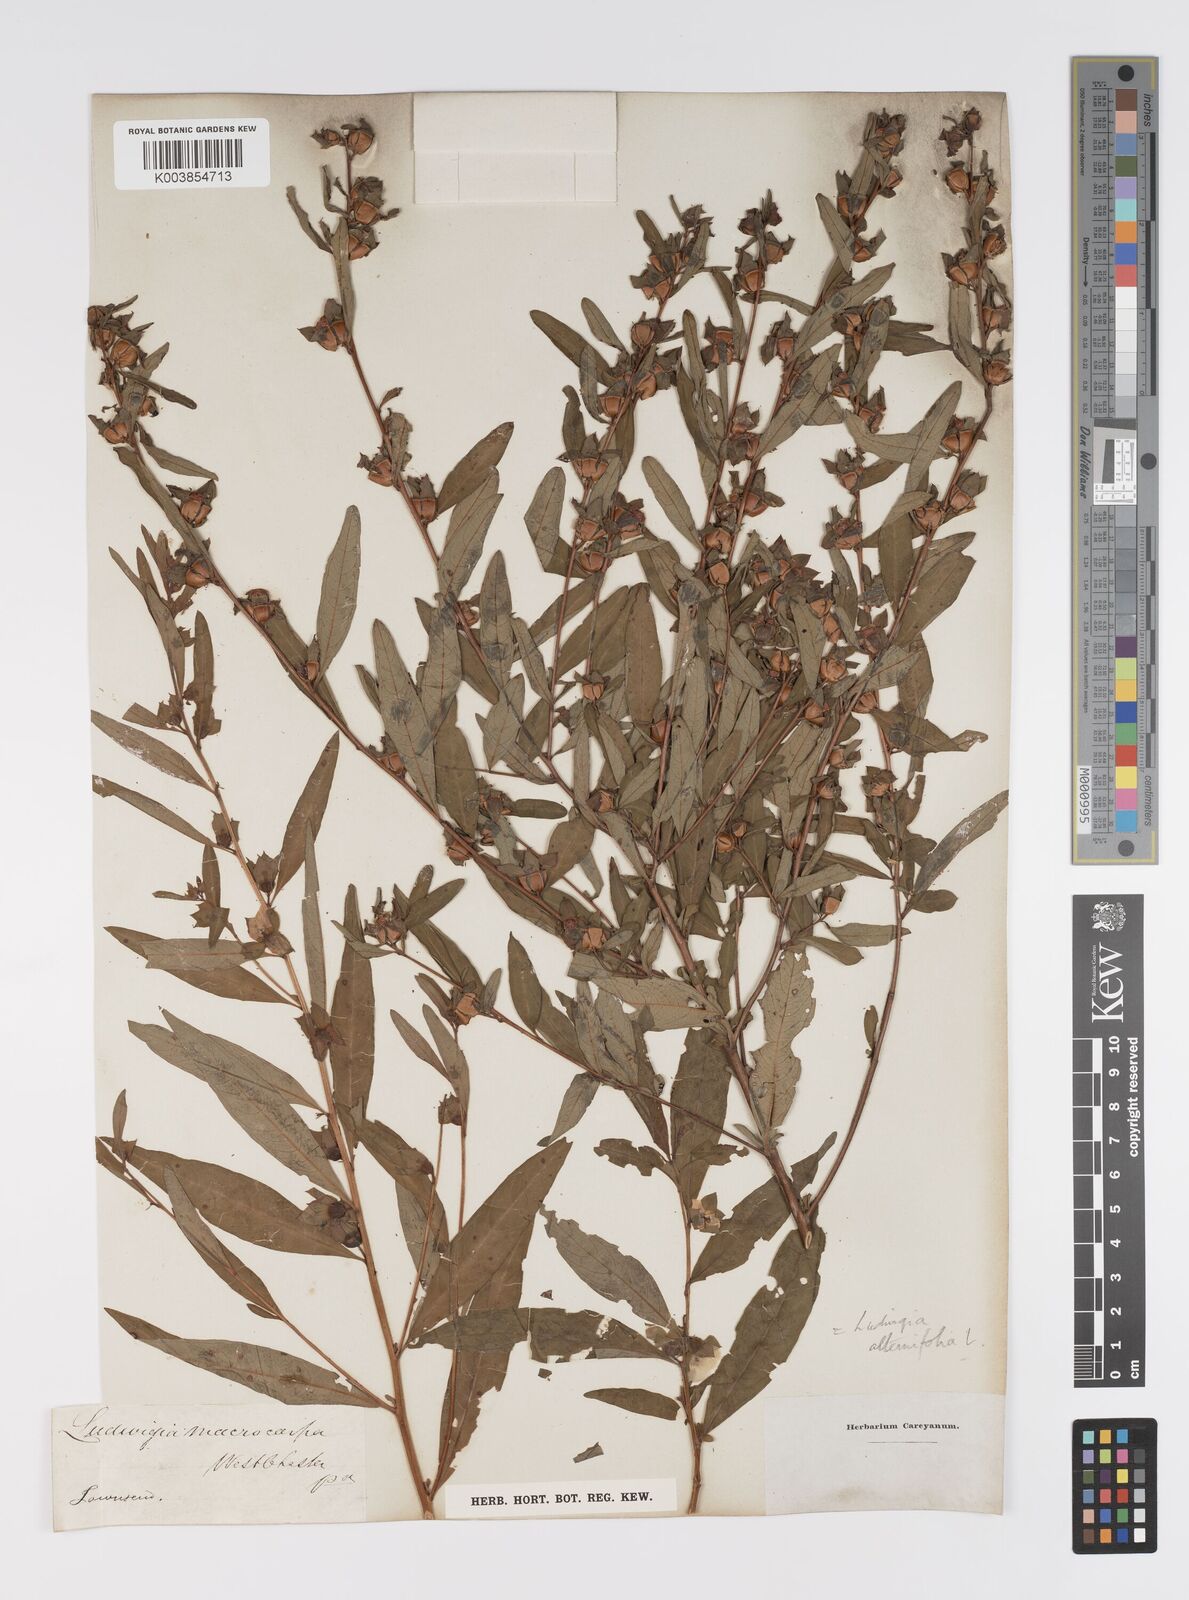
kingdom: Plantae
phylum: Tracheophyta
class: Magnoliopsida
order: Myrtales
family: Onagraceae
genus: Ludwigia
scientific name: Ludwigia alternifolia
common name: Rattlebox
